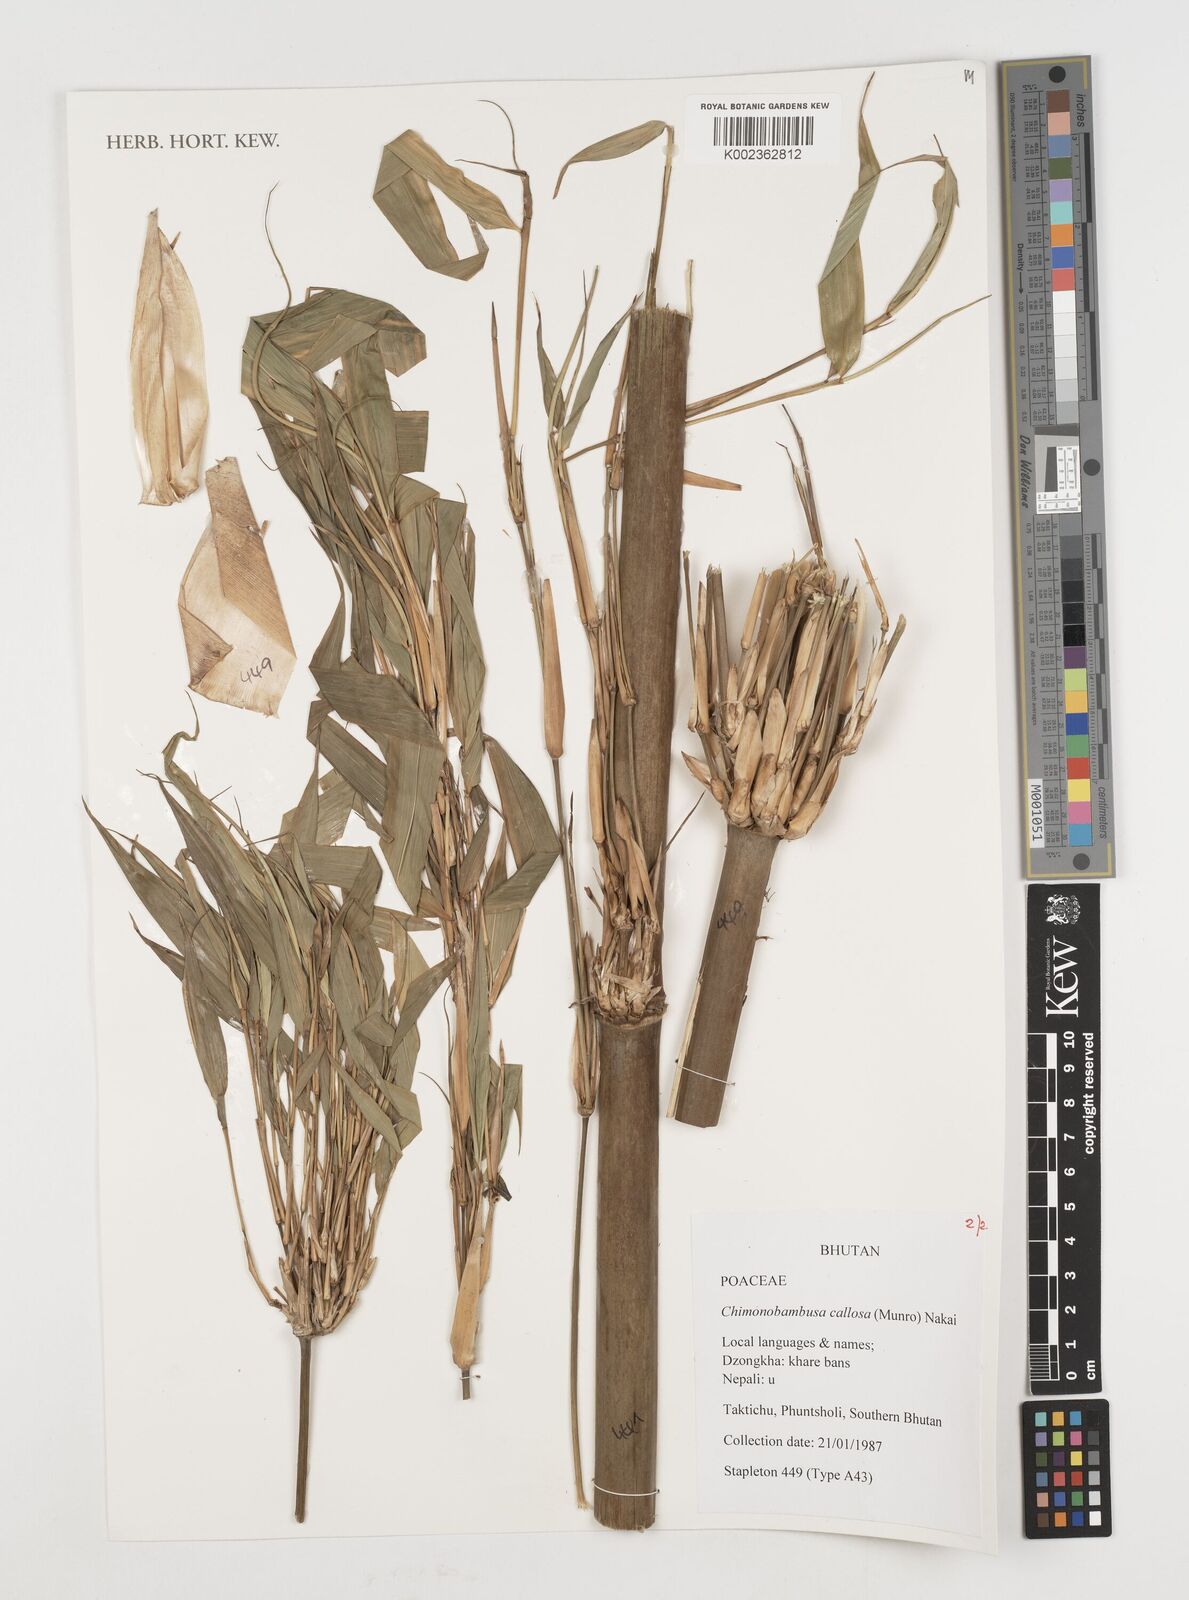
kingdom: Plantae
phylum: Tracheophyta
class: Liliopsida
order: Poales
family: Poaceae
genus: Chimonobambusa
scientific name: Chimonobambusa callosa
